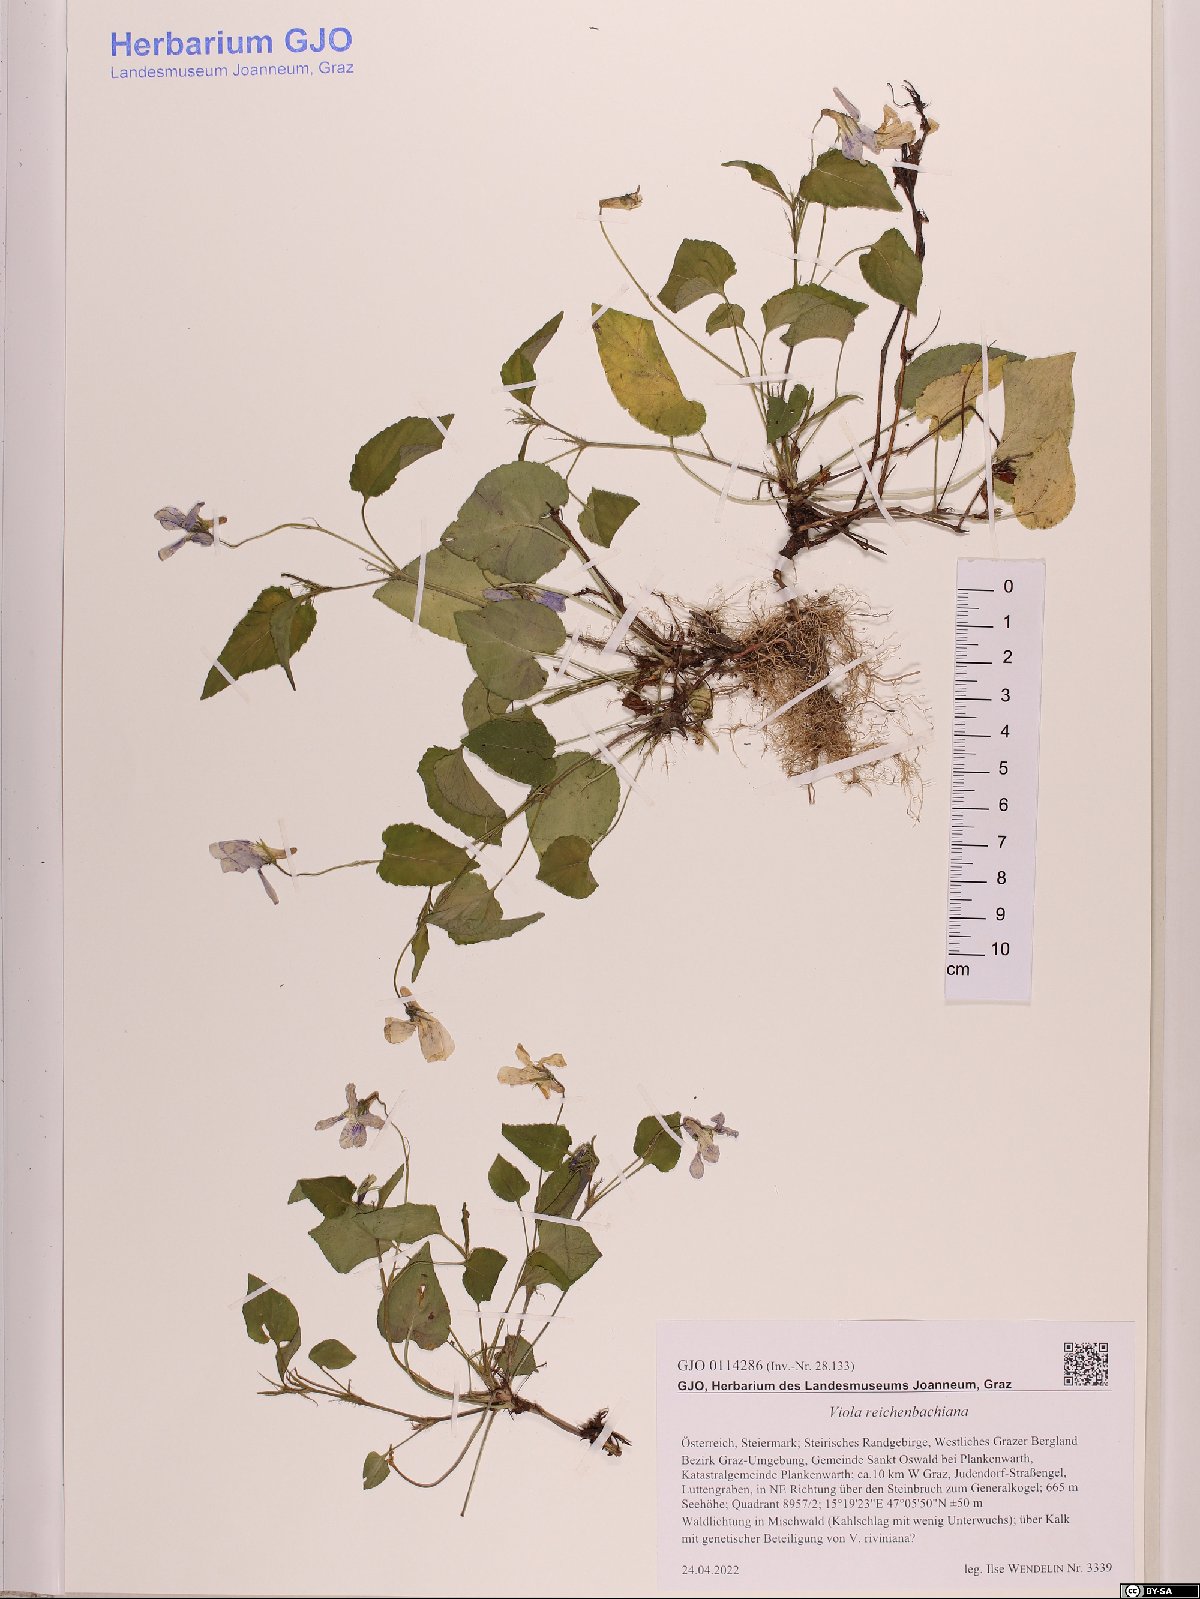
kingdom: Plantae
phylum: Tracheophyta
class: Magnoliopsida
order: Malpighiales
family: Violaceae
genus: Viola
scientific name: Viola reichenbachiana
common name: Early dog-violet
